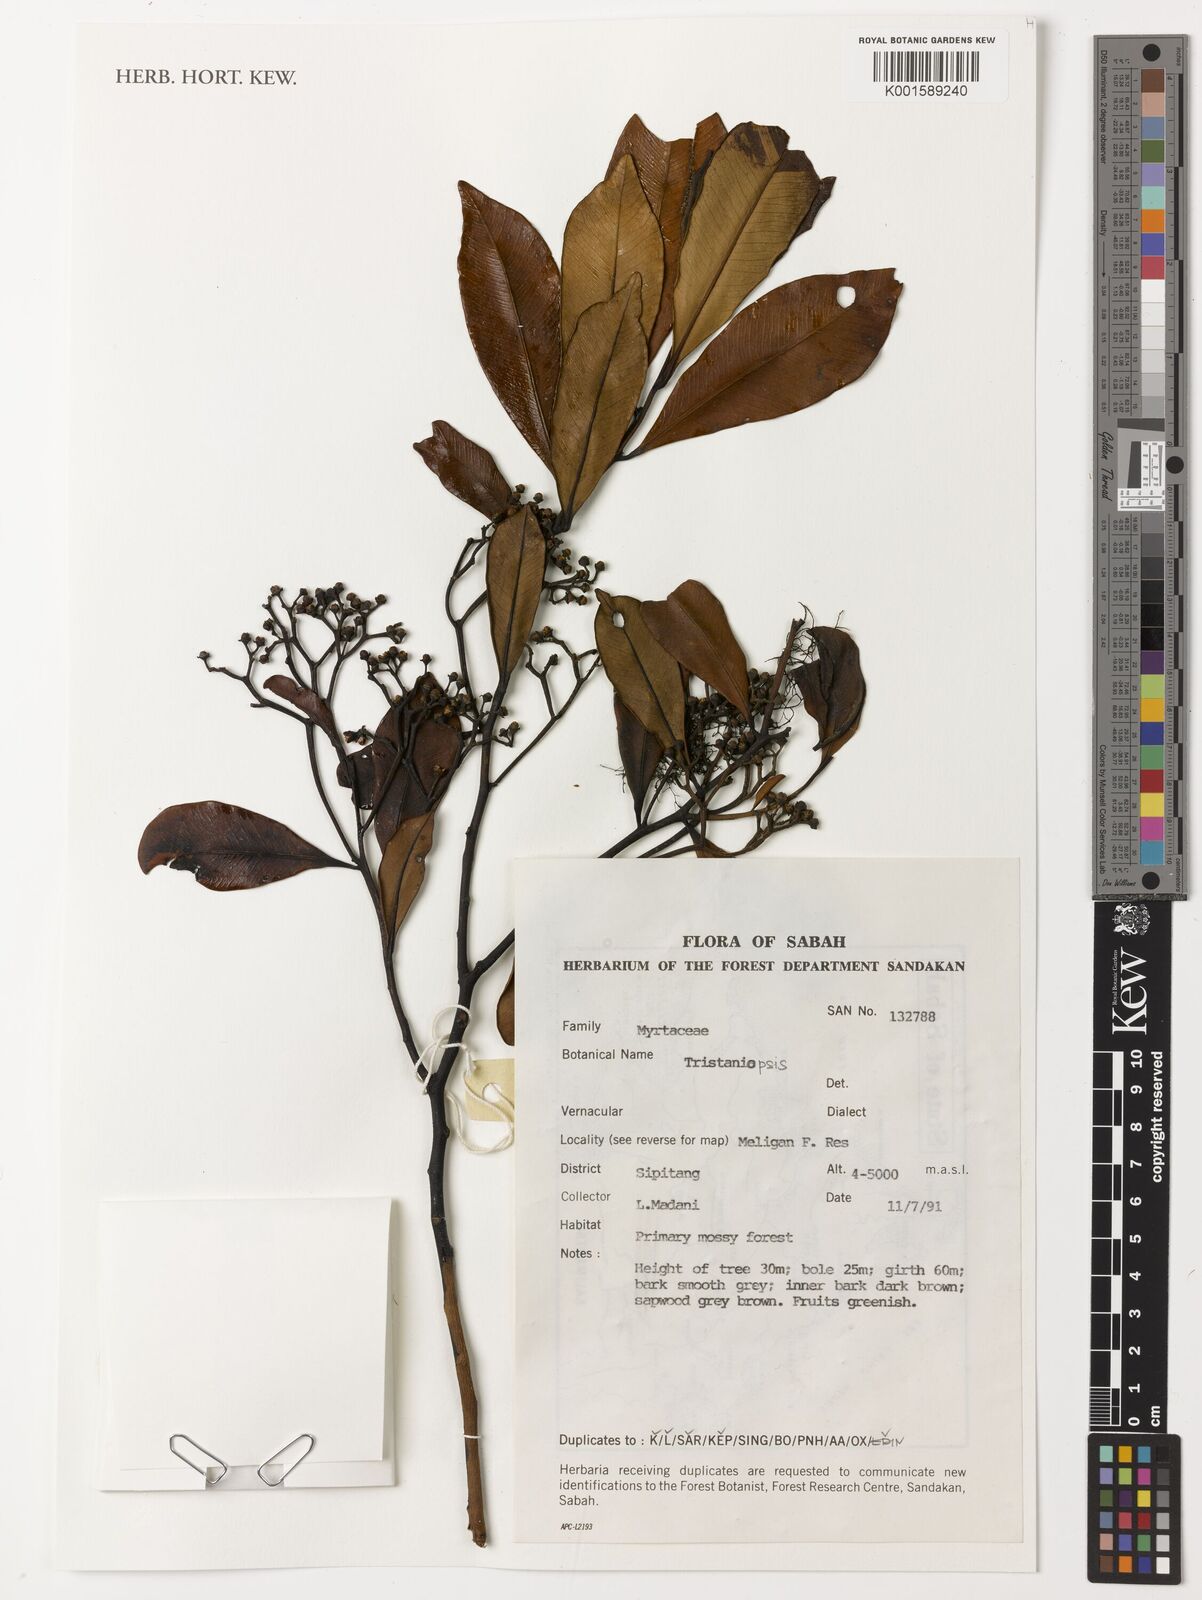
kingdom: Plantae
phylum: Tracheophyta
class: Magnoliopsida
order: Myrtales
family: Myrtaceae
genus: Tristaniopsis
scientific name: Tristaniopsis
